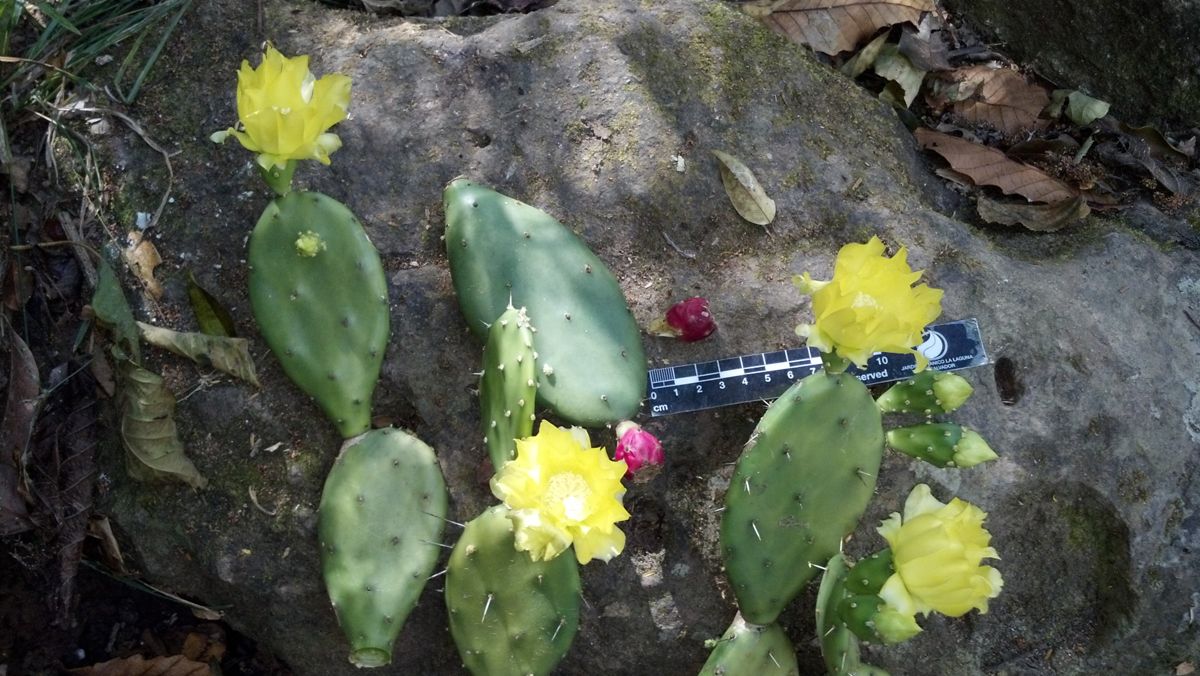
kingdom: Plantae
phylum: Tracheophyta
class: Magnoliopsida
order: Caryophyllales
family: Cactaceae
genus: Opuntia
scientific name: Opuntia auberi
